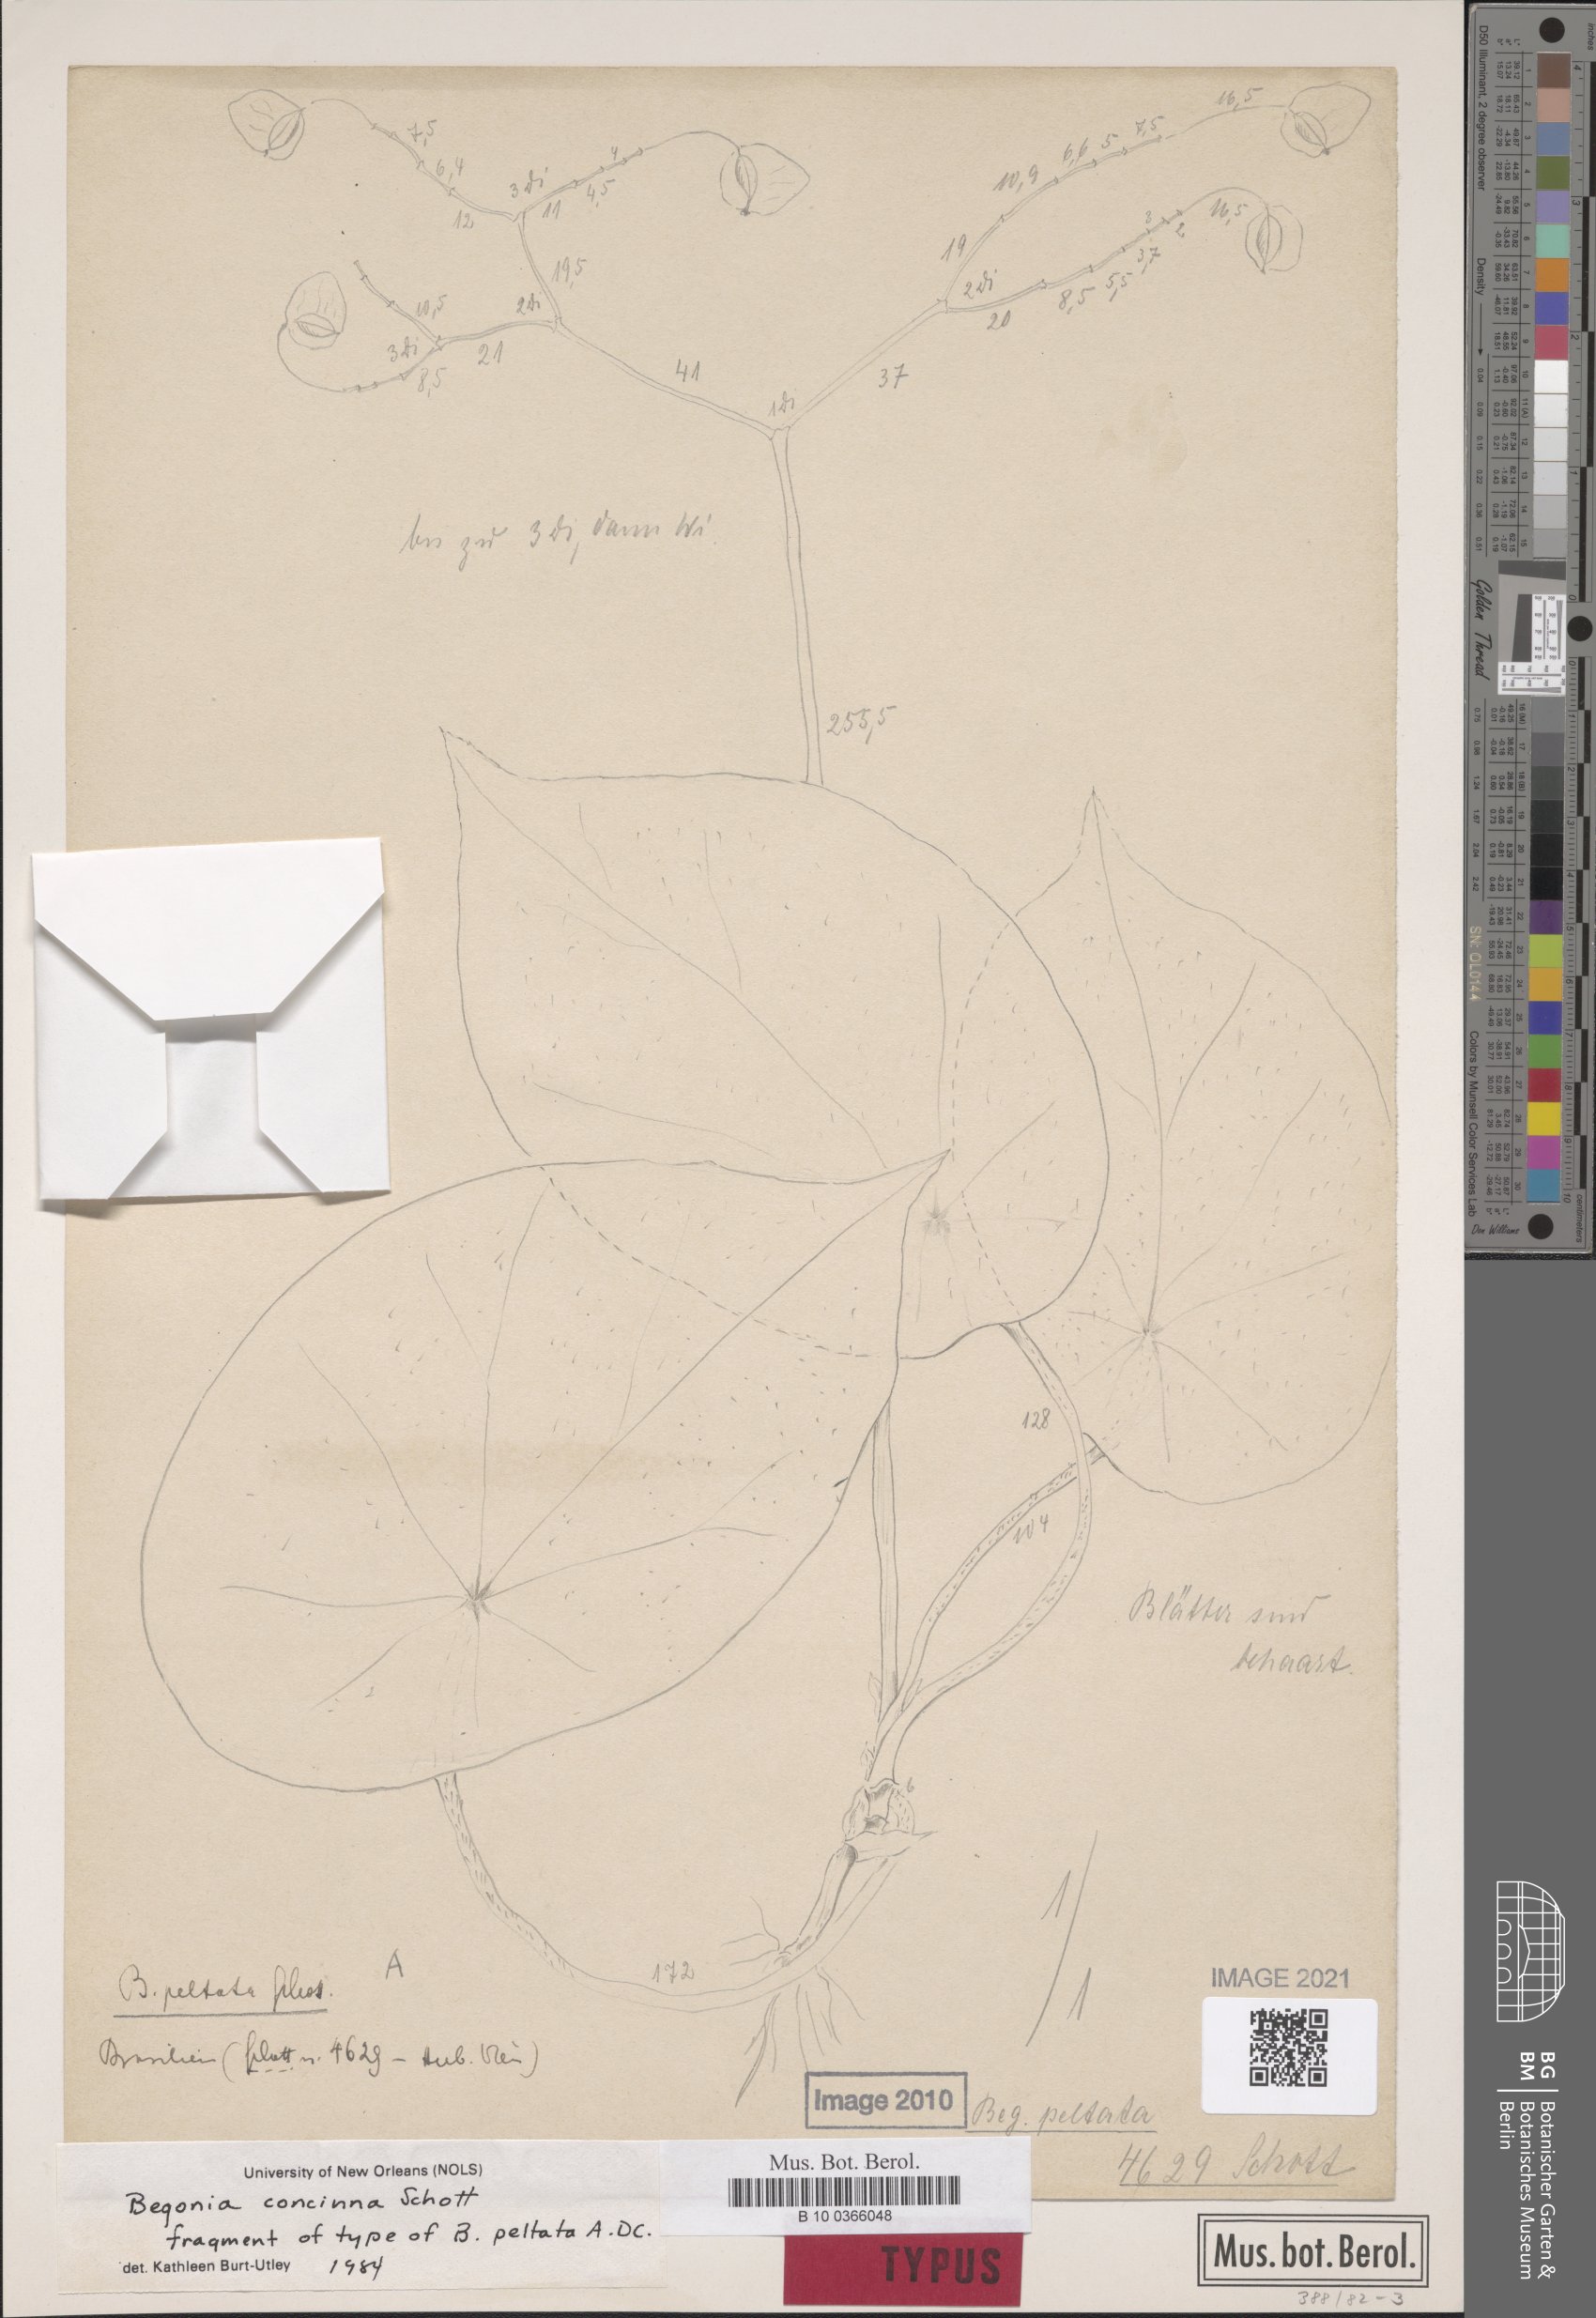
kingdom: Plantae
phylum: Tracheophyta
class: Magnoliopsida
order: Cucurbitales
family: Begoniaceae
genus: Begonia
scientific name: Begonia concinna
